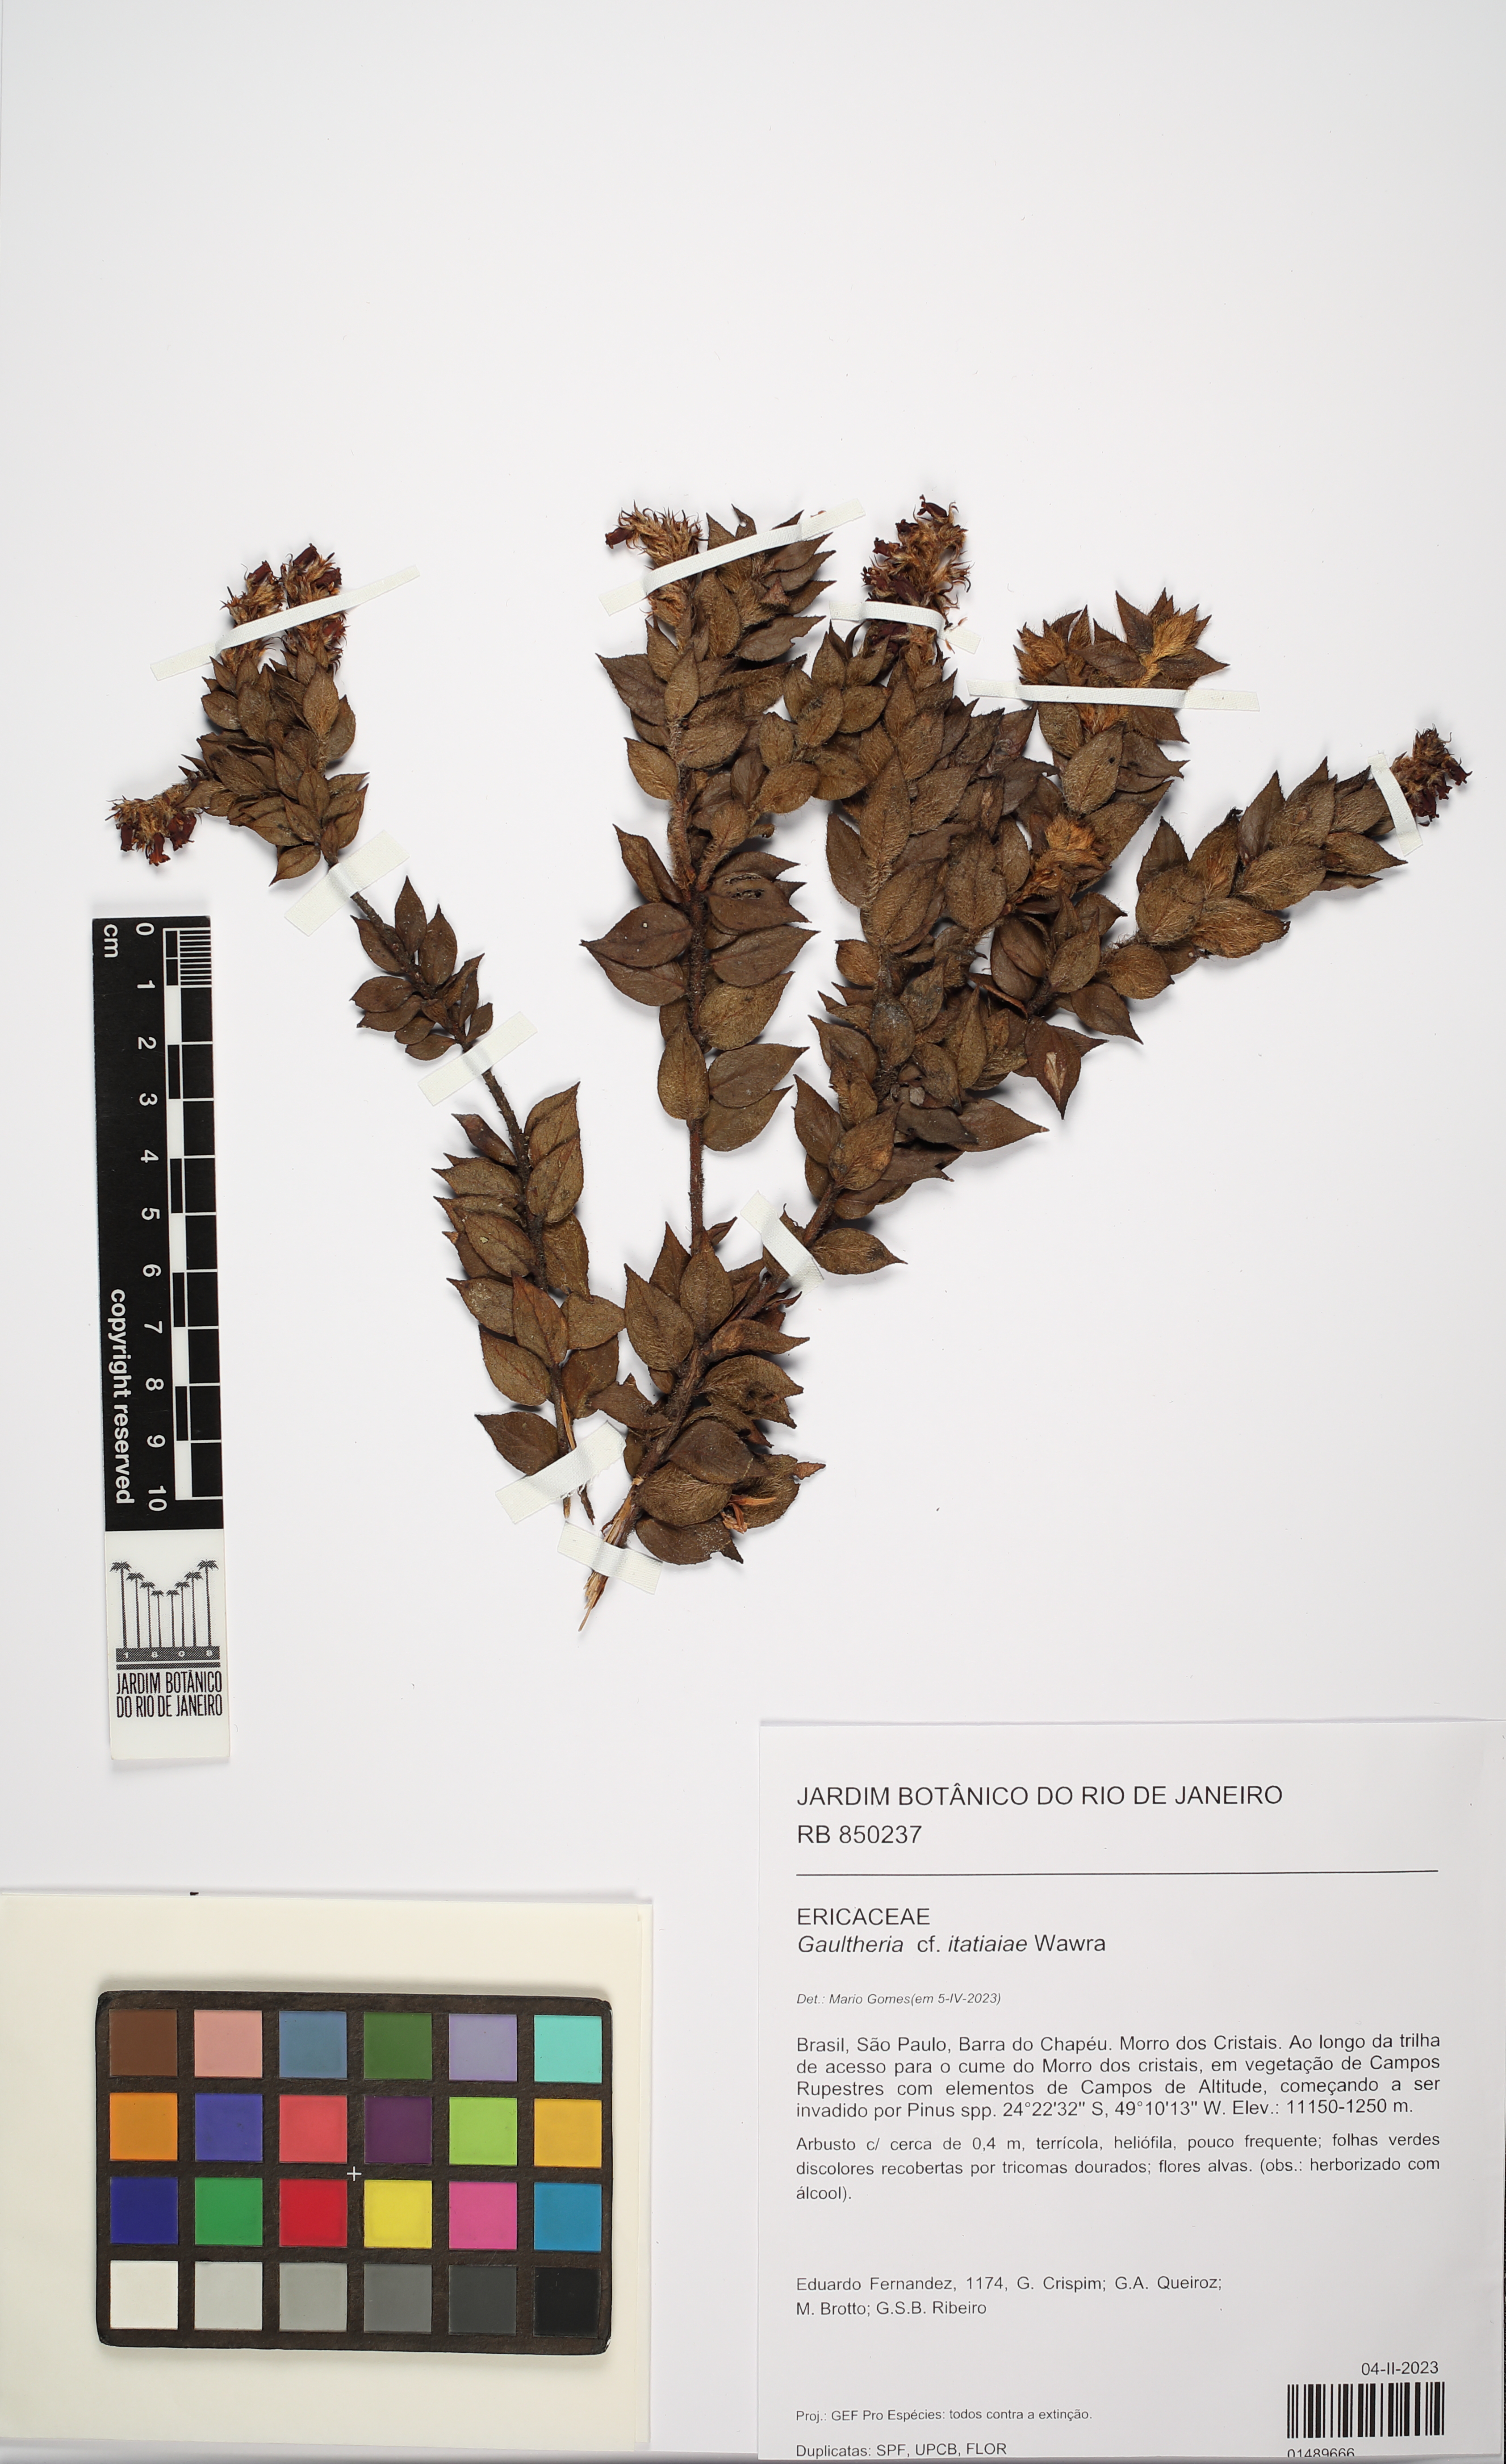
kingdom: Plantae
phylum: Tracheophyta
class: Magnoliopsida
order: Ericales
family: Ericaceae
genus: Gaultheria
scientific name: Gaultheria itatiaiae
